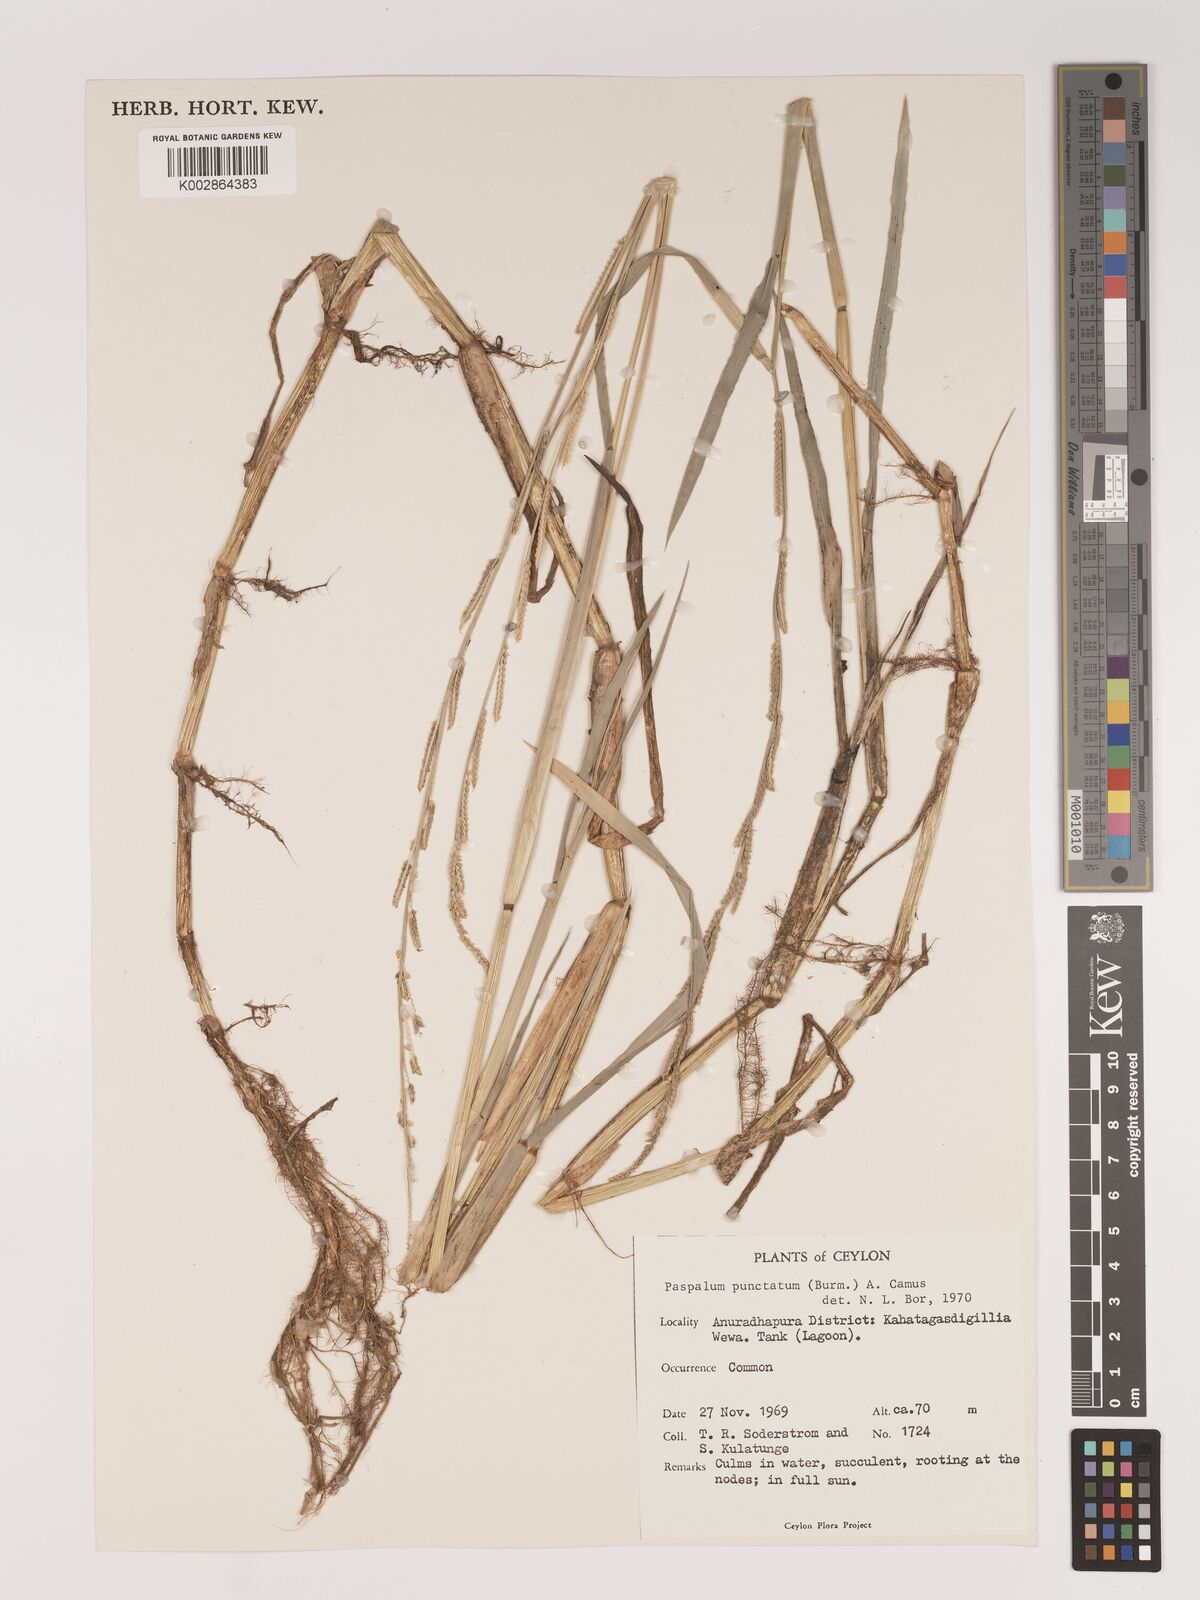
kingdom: Plantae
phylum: Tracheophyta
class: Liliopsida
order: Poales
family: Poaceae
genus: Setaria
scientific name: Setaria punctata
